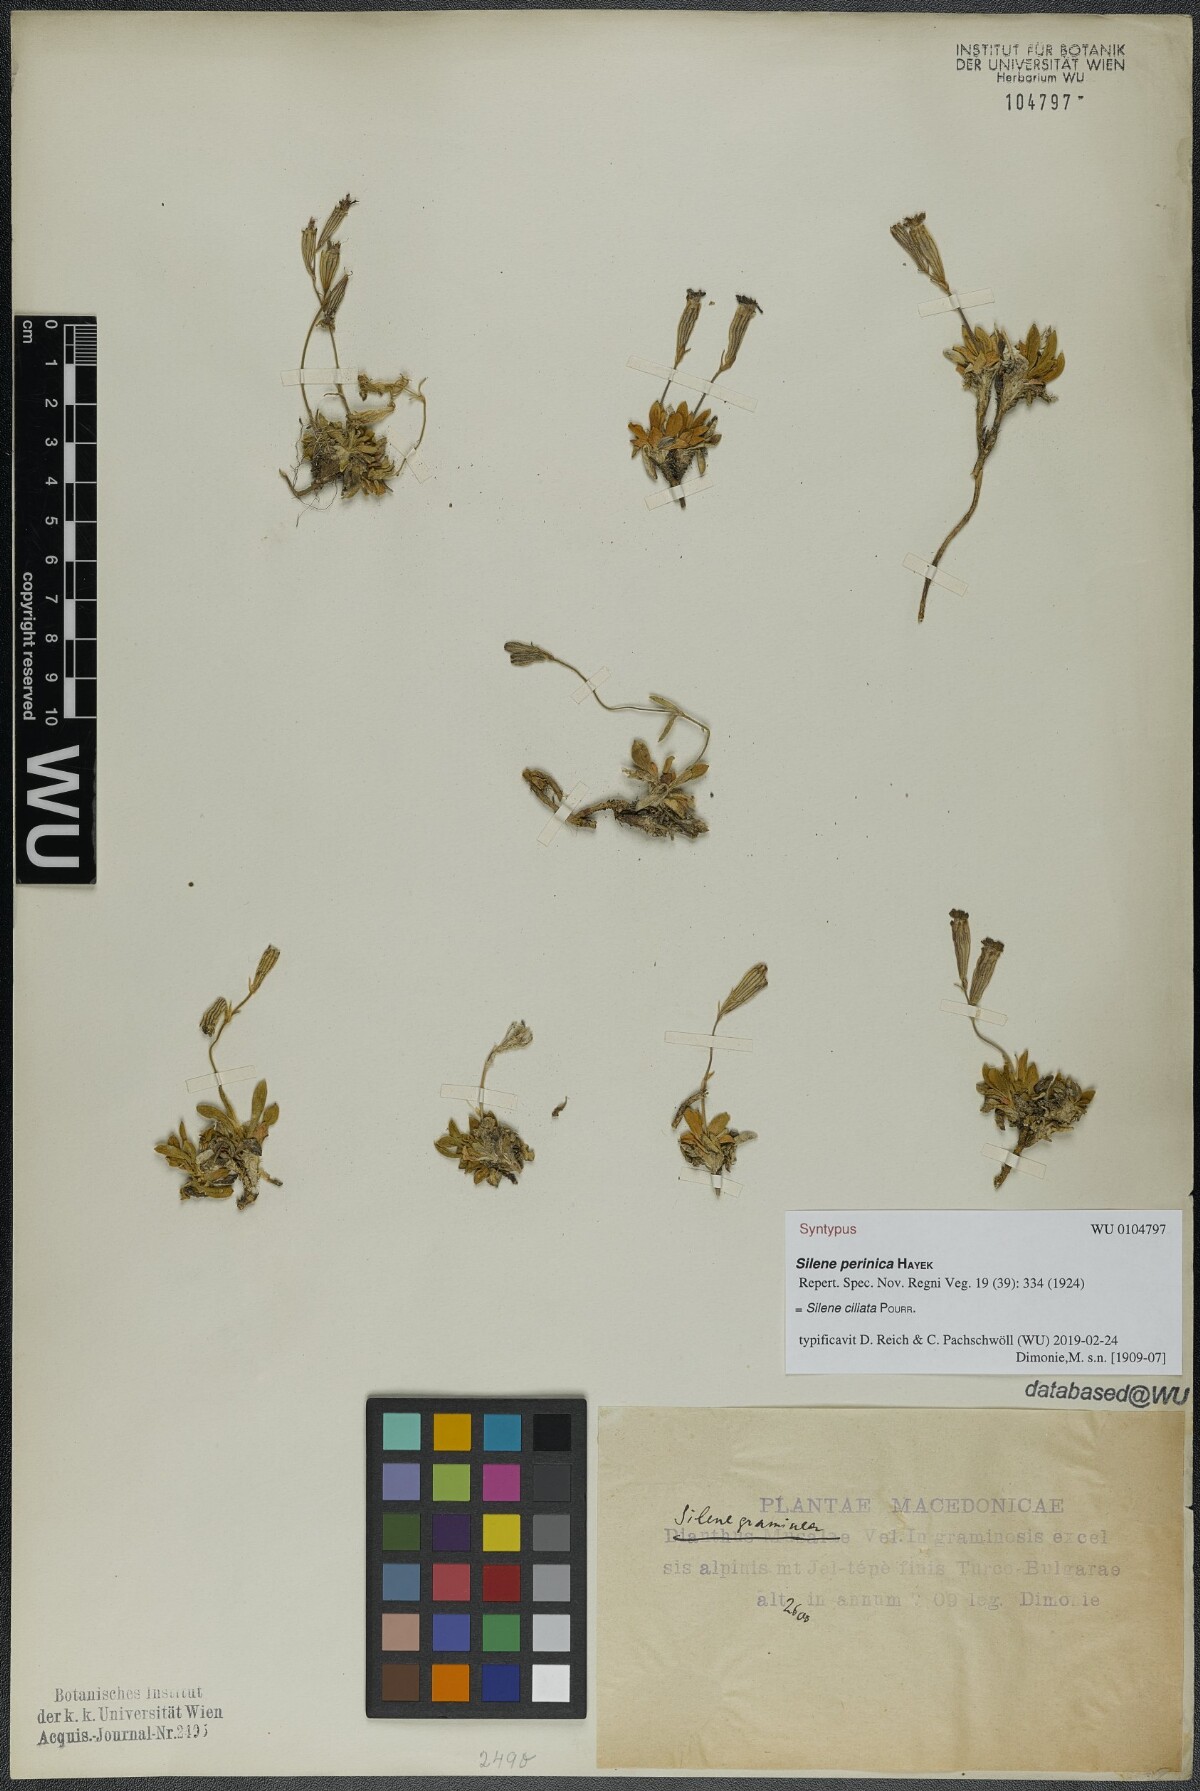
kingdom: Plantae
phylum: Tracheophyta
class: Magnoliopsida
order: Caryophyllales
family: Caryophyllaceae
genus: Silene
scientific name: Silene ciliata
